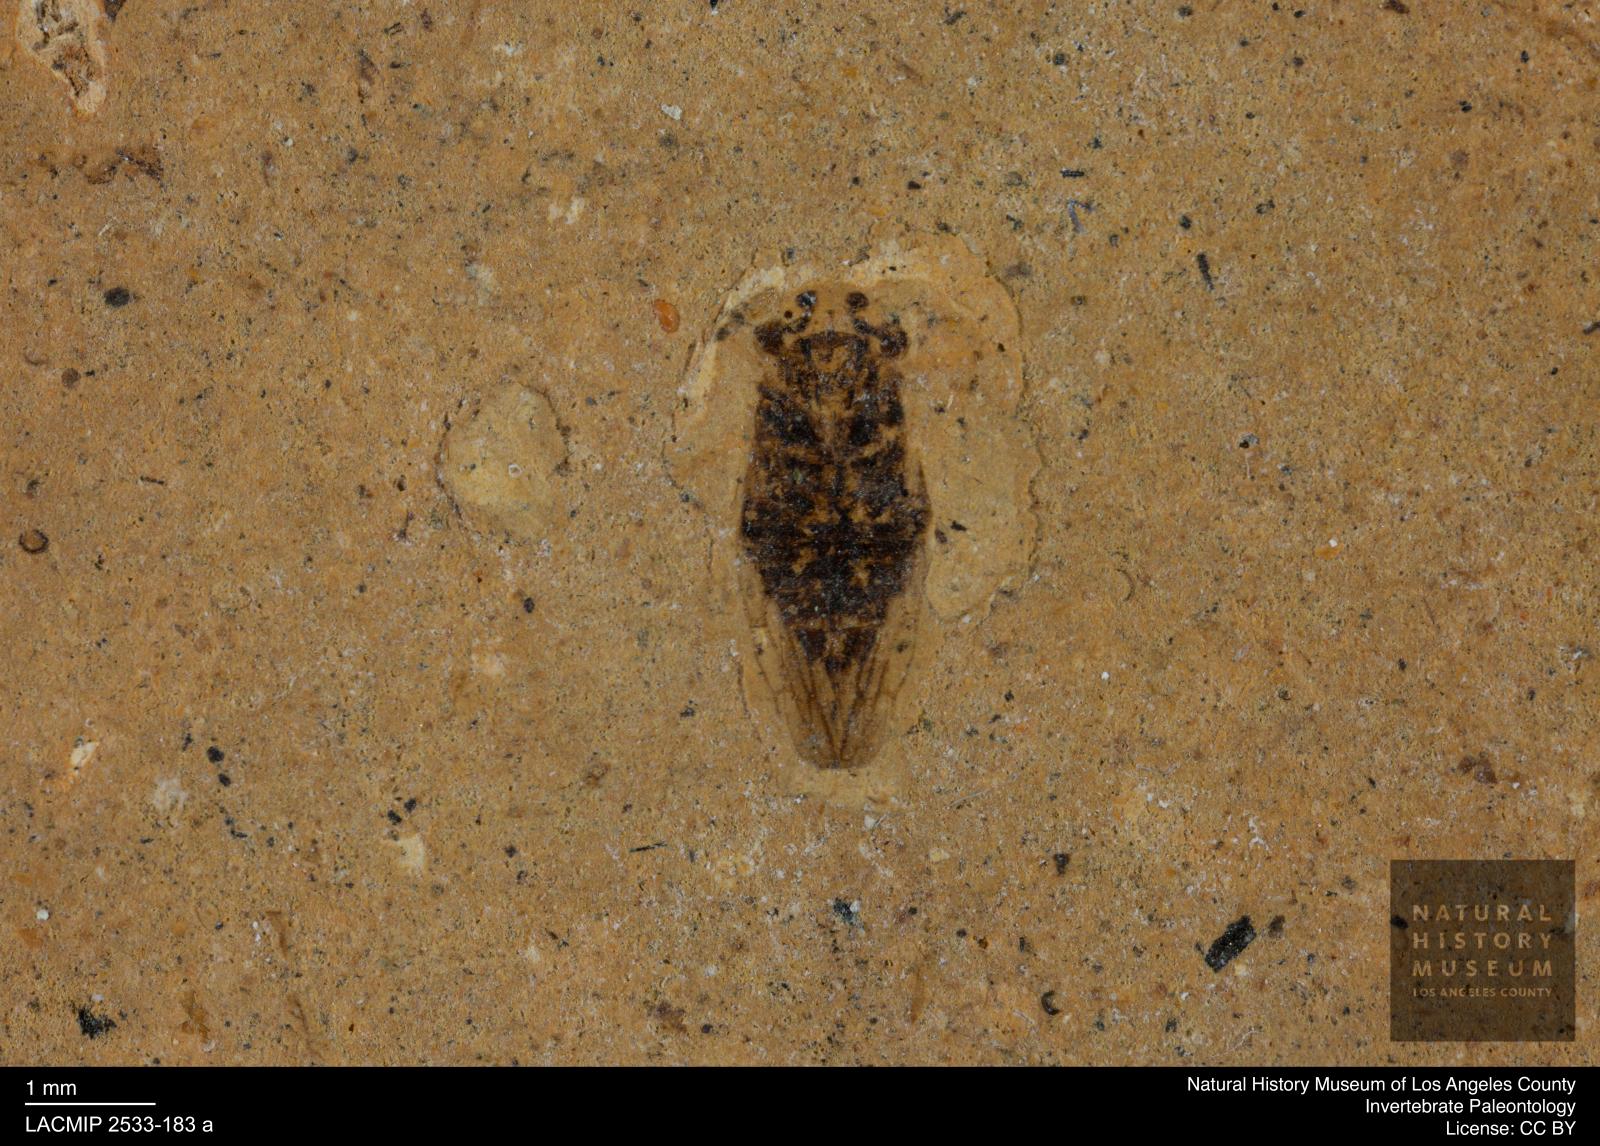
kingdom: Animalia
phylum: Arthropoda
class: Insecta
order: Hemiptera
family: Cicadellidae
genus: Tettigoniella
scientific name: Tettigoniella capitata
